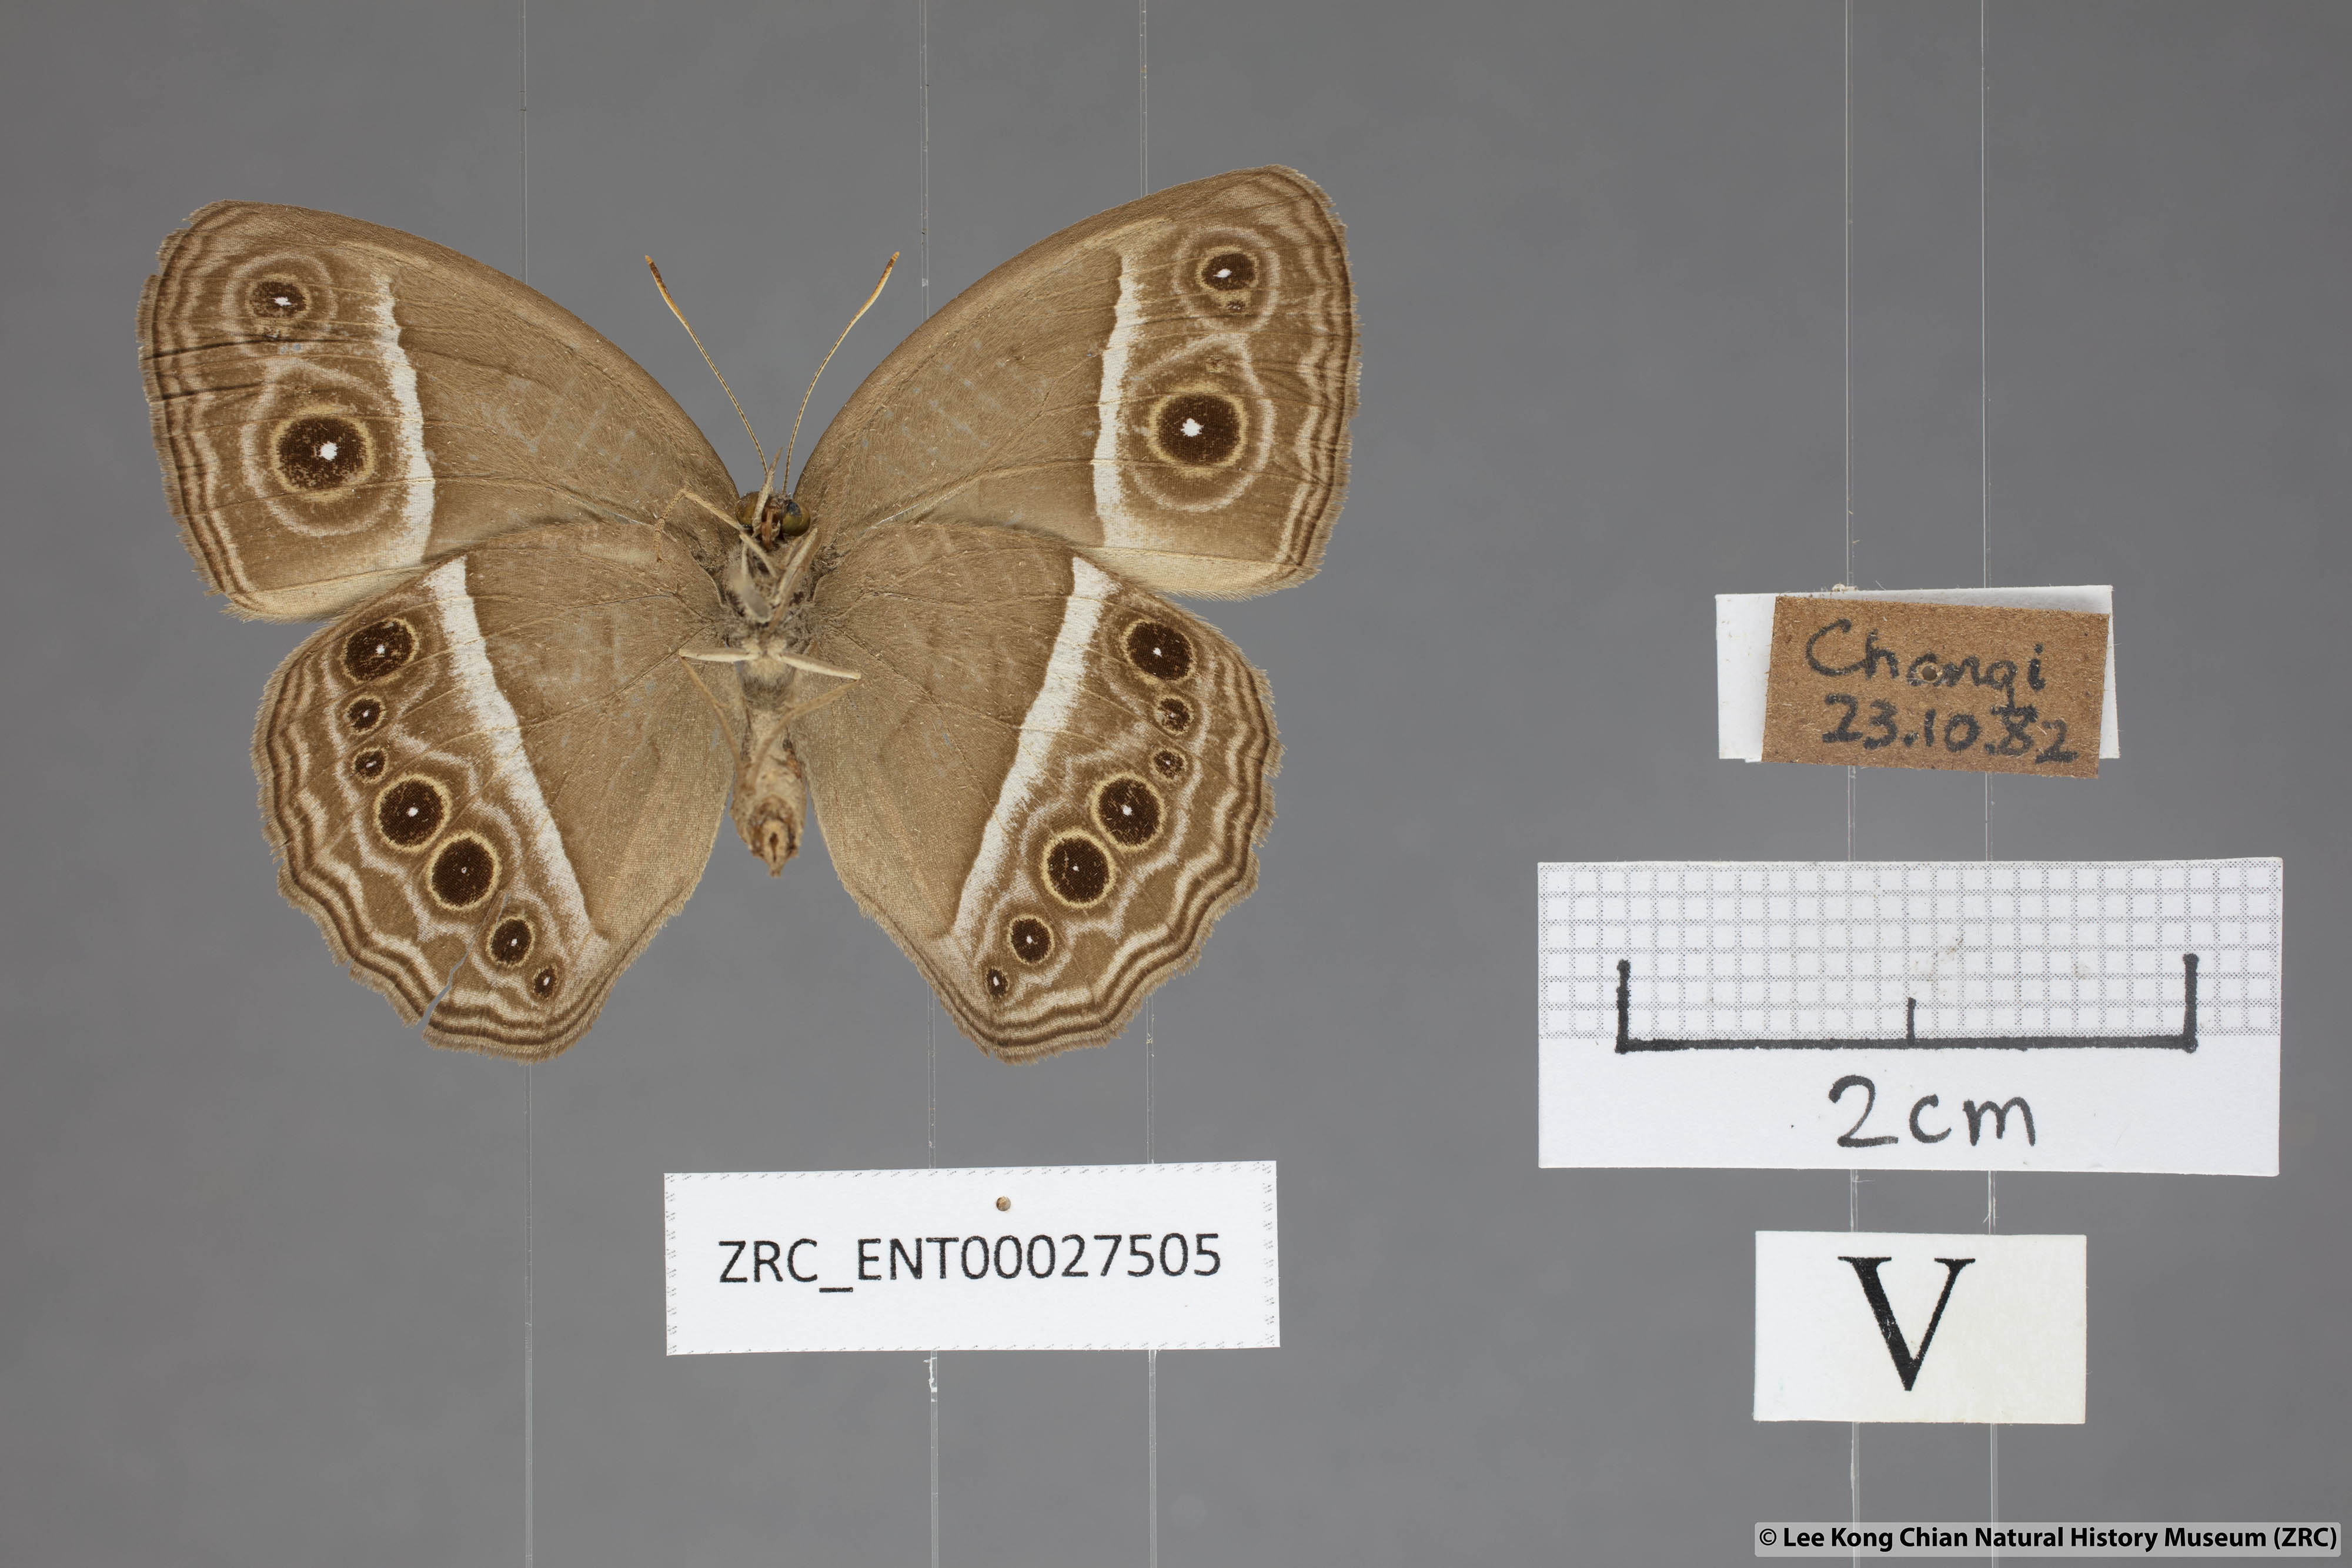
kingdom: Animalia
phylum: Arthropoda
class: Insecta
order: Lepidoptera
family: Nymphalidae
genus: Mycalesis
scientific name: Mycalesis mineus
